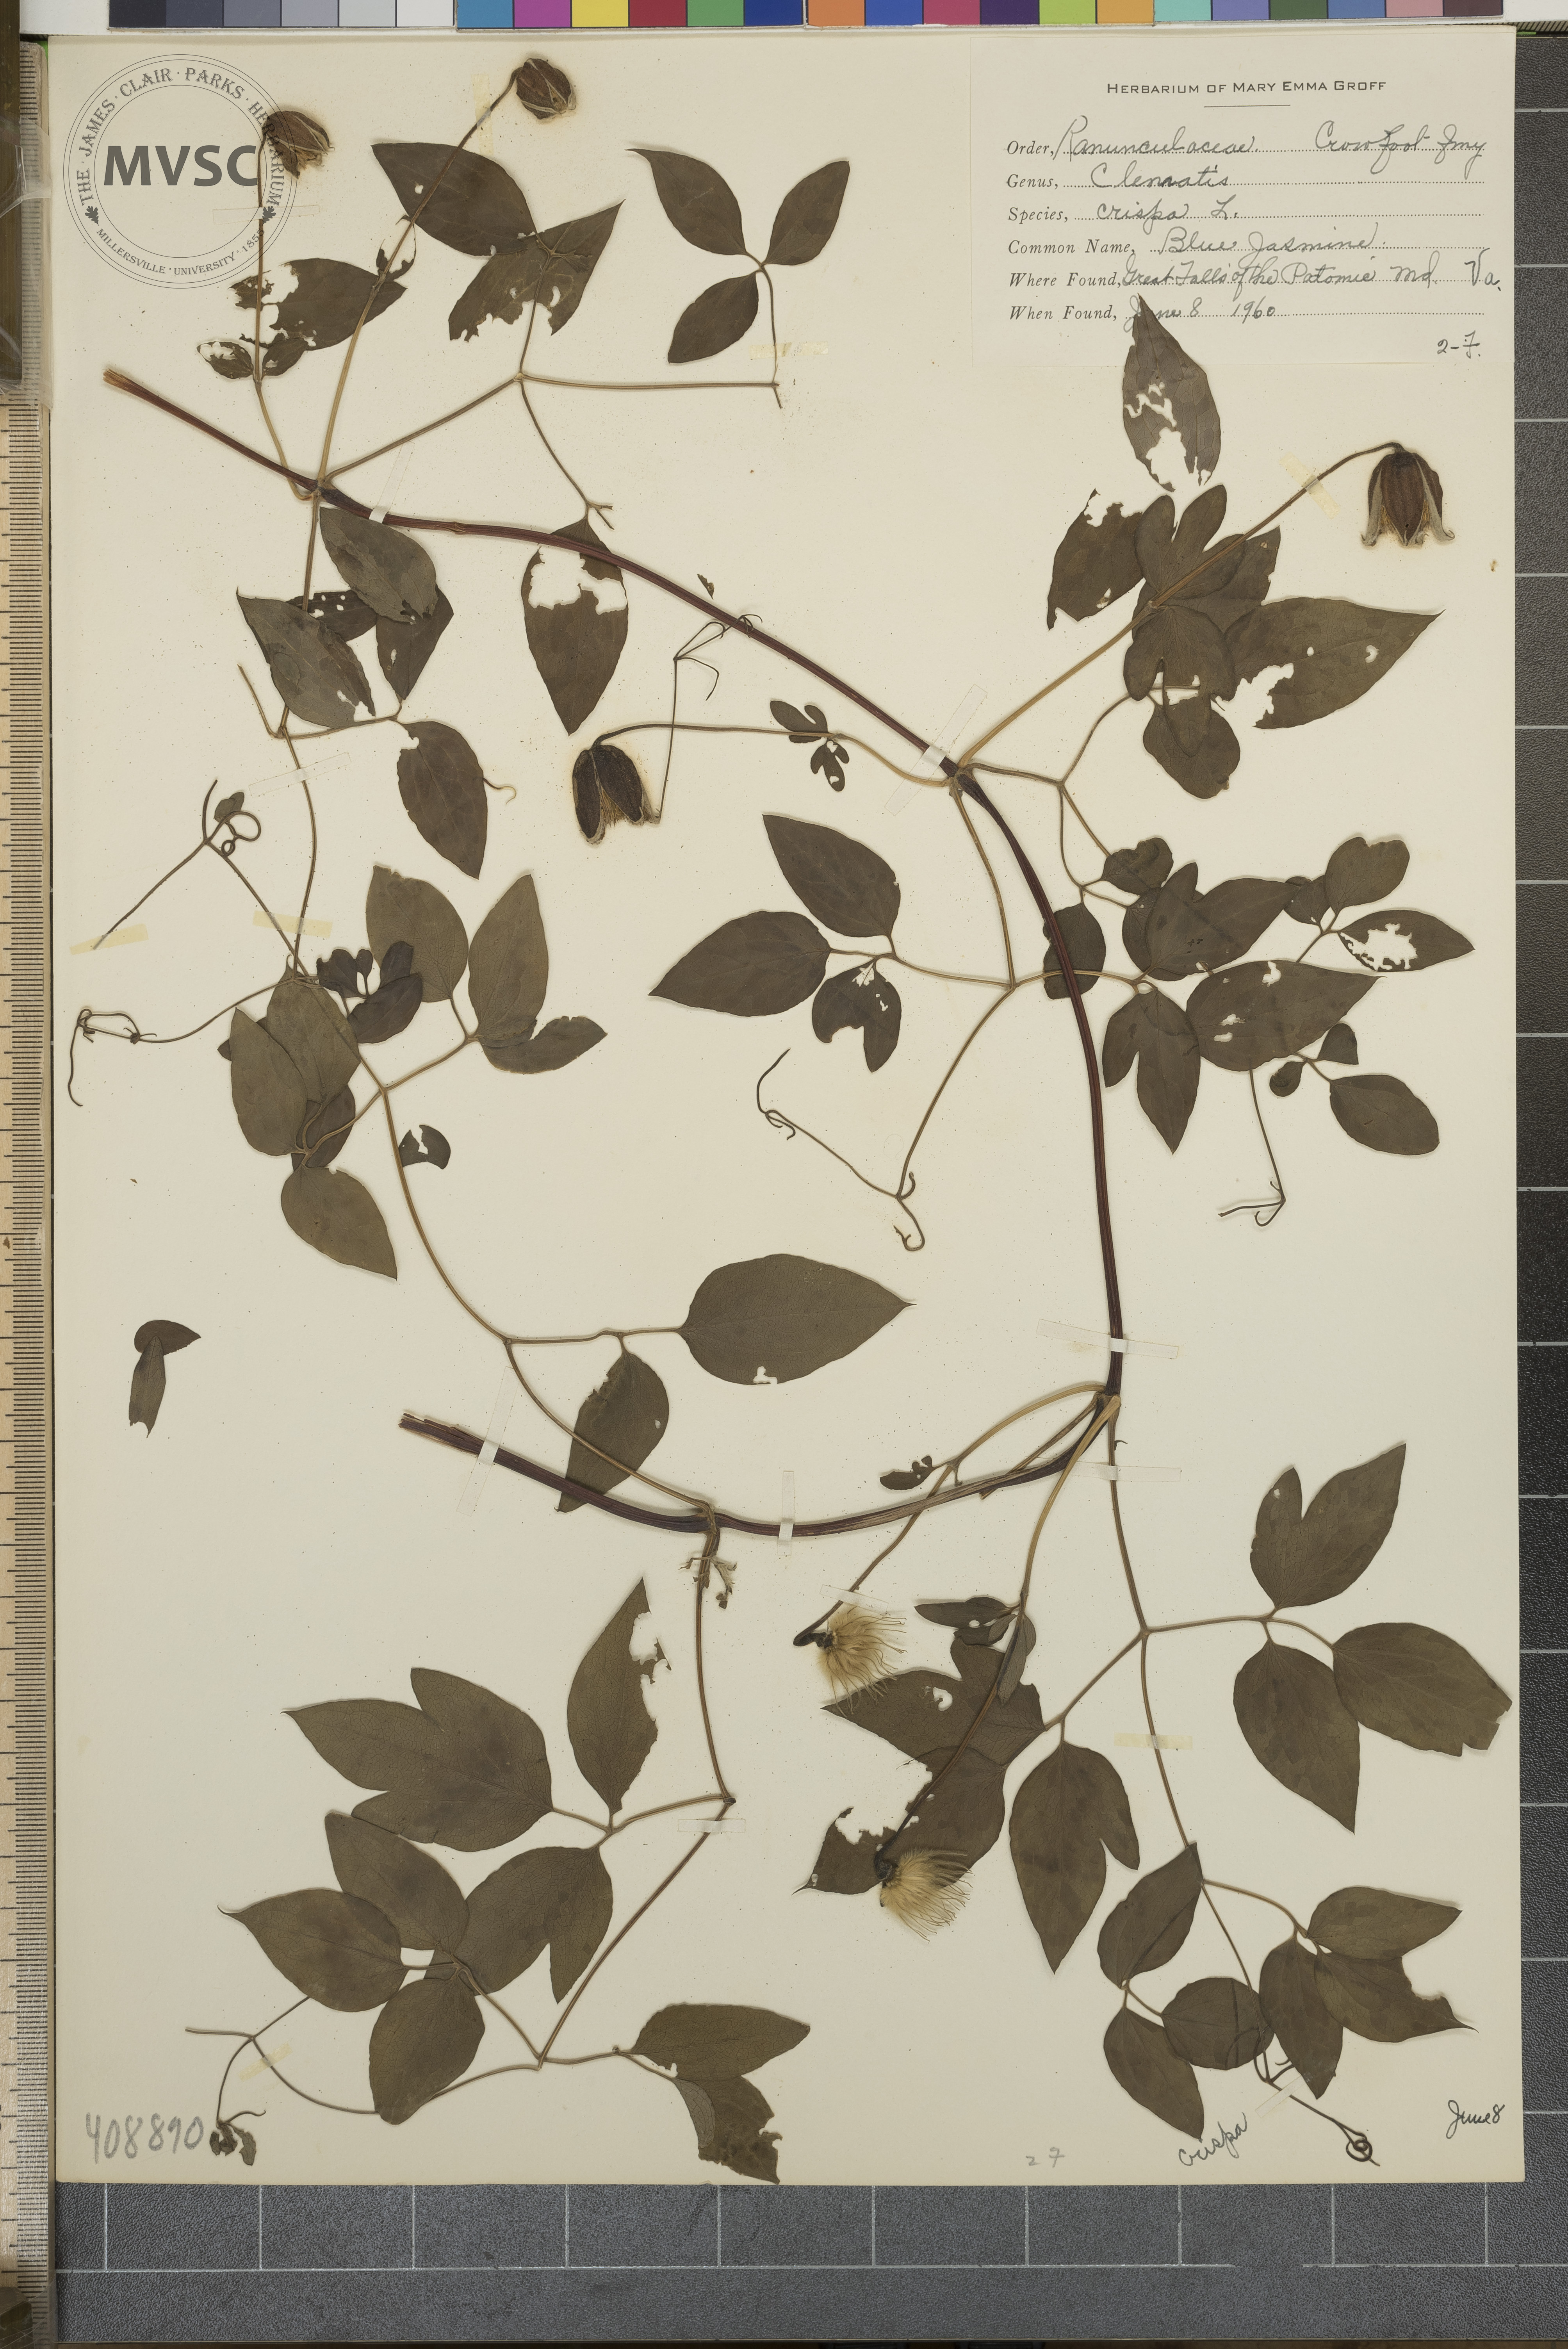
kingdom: Plantae
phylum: Tracheophyta
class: Magnoliopsida
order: Ranunculales
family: Ranunculaceae
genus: Clematis
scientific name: Clematis viorna
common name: Leather-flower
